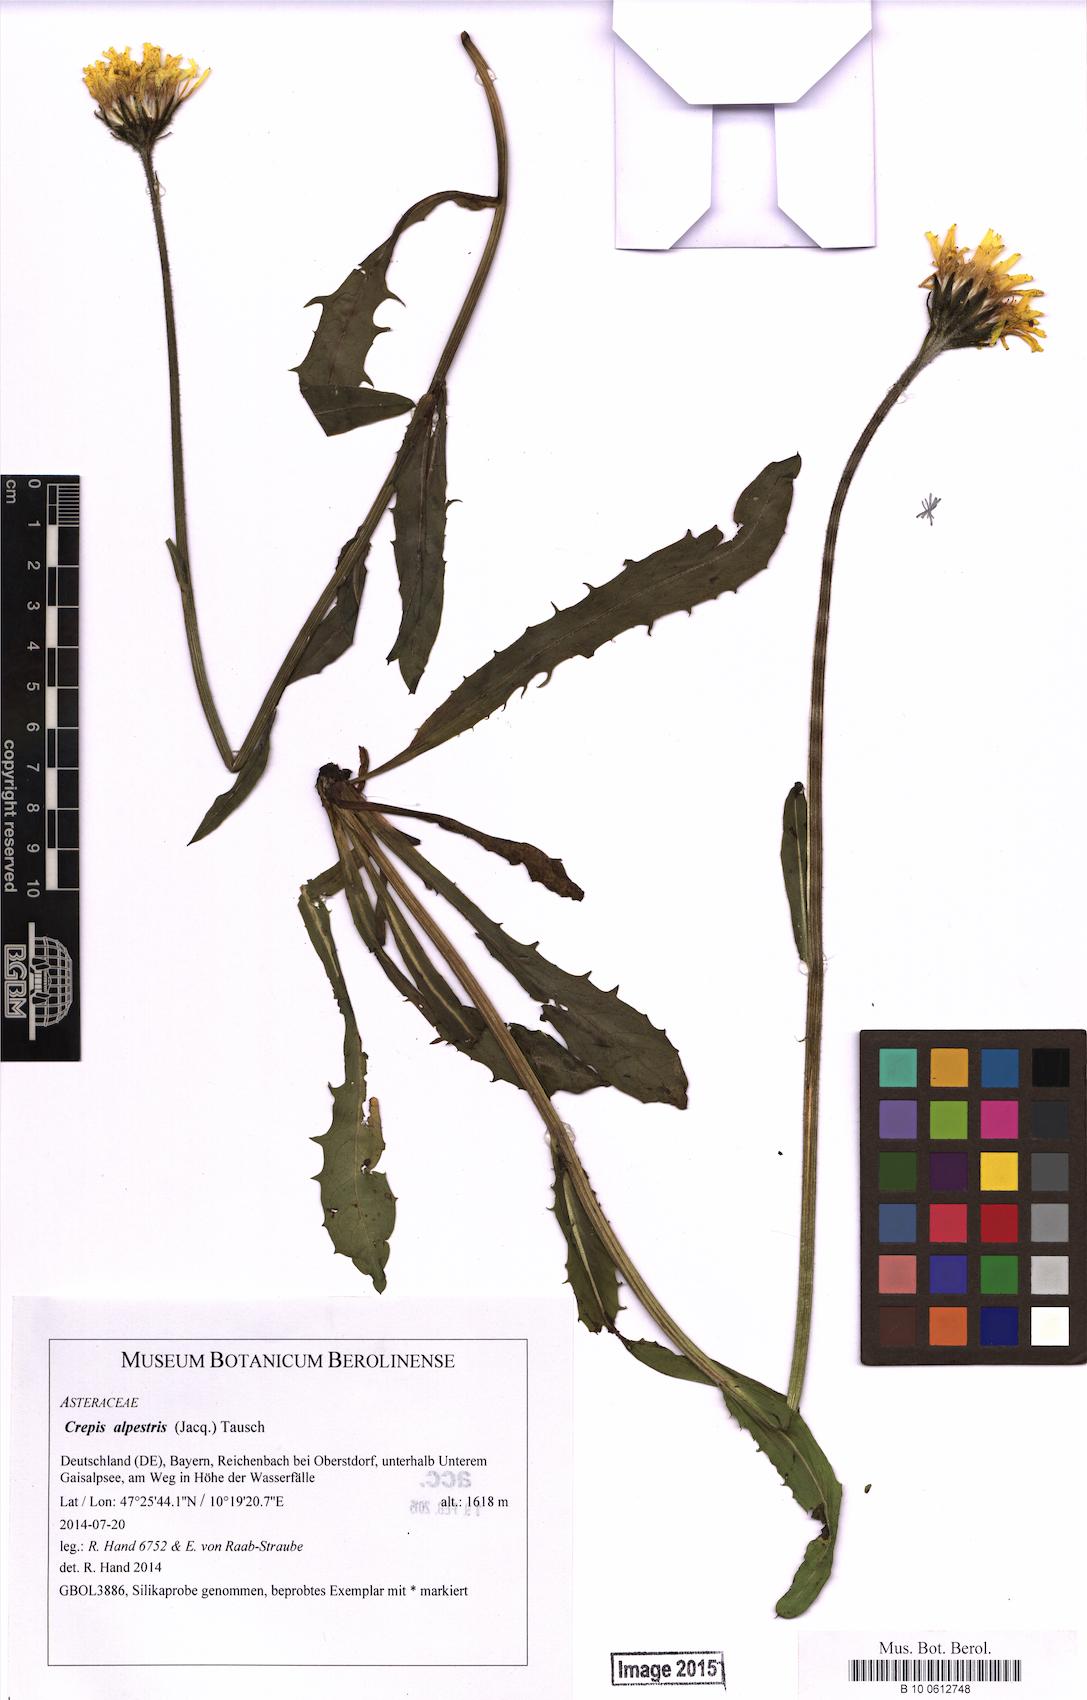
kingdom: Plantae
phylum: Tracheophyta
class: Magnoliopsida
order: Asterales
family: Asteraceae
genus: Crepis
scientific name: Crepis alpestris
